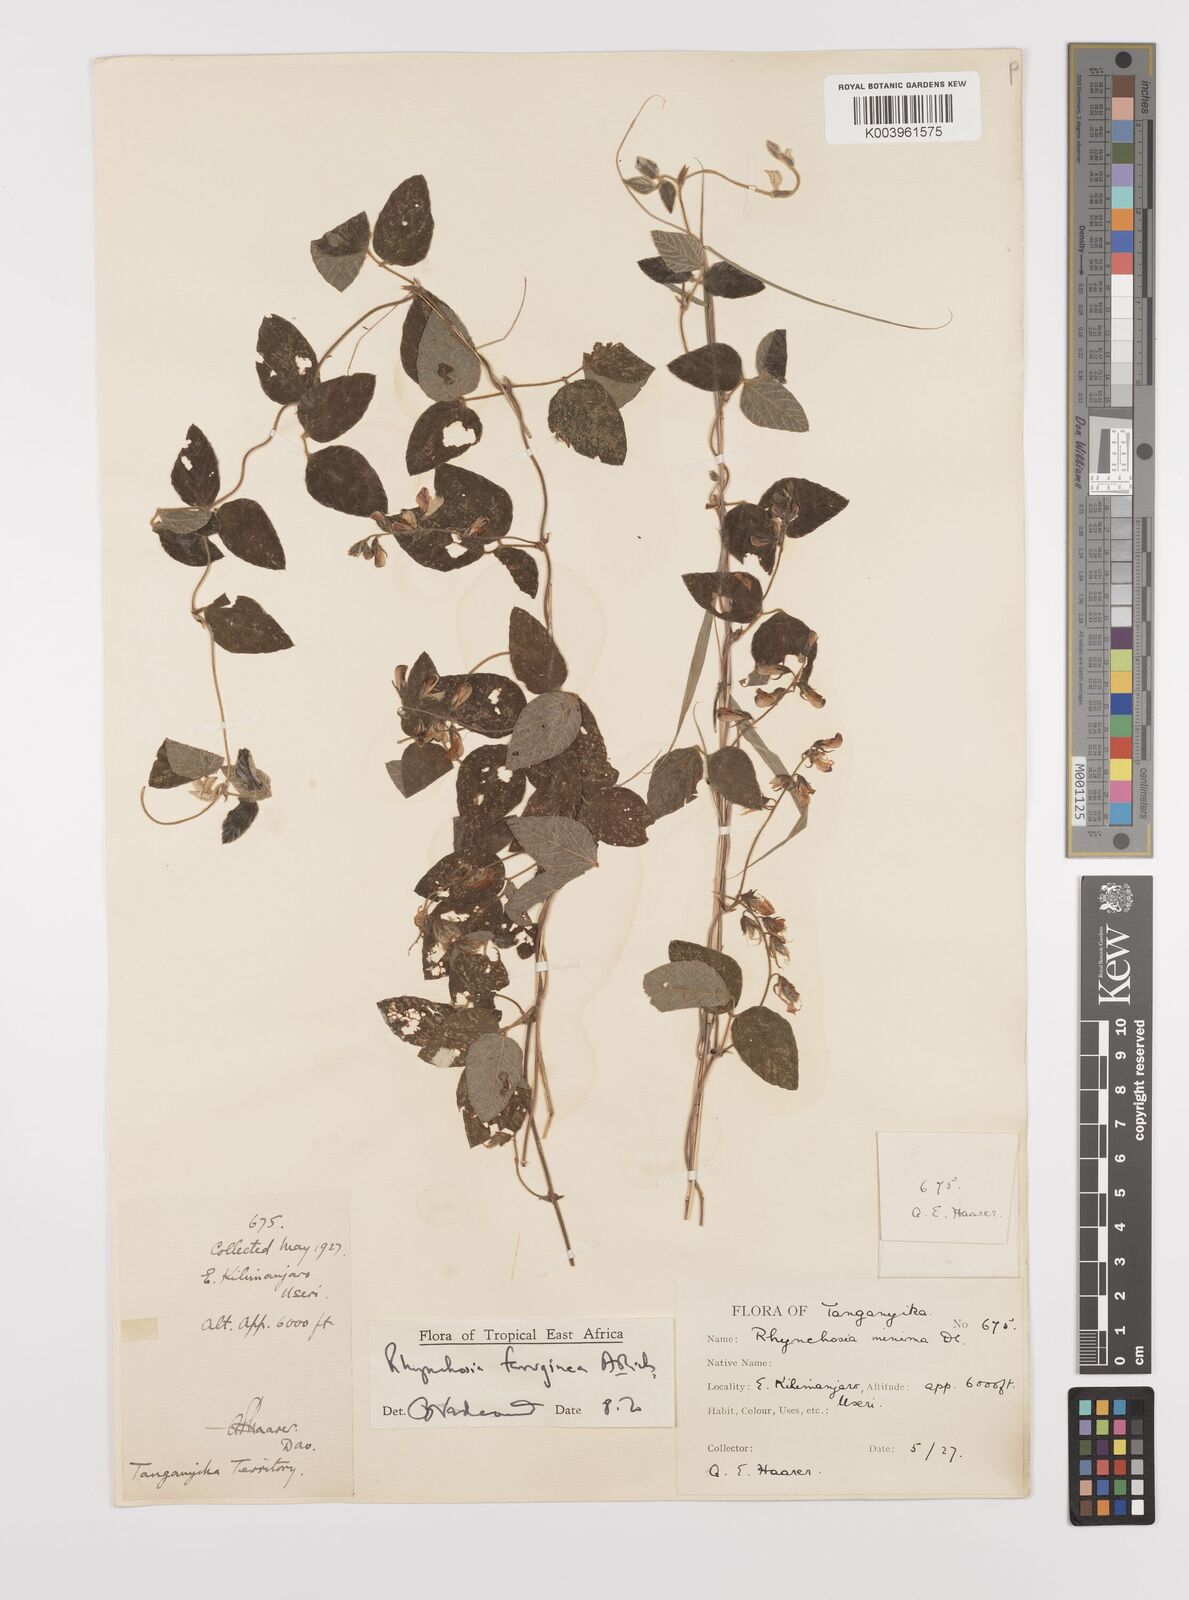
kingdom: Plantae
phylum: Tracheophyta
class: Magnoliopsida
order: Fabales
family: Fabaceae
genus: Rhynchosia
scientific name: Rhynchosia ferruginea
